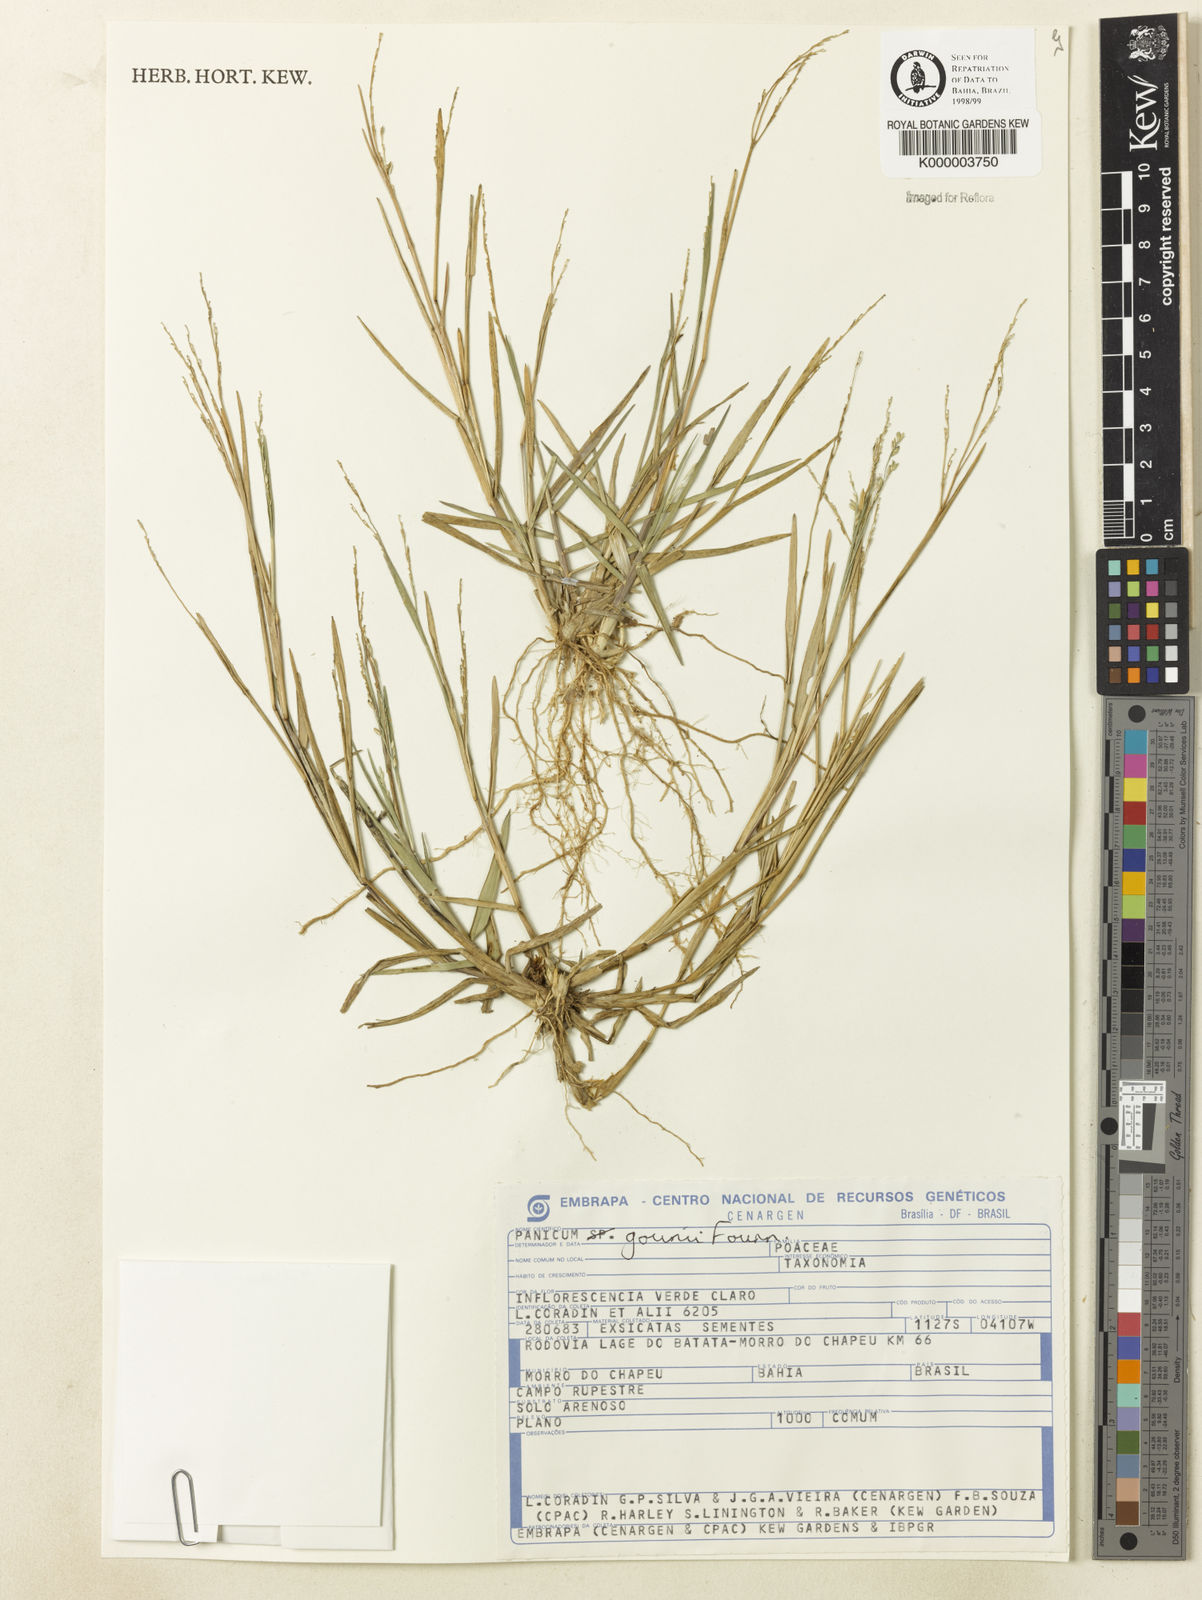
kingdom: Plantae
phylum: Tracheophyta
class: Liliopsida
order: Poales
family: Poaceae
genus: Hymenachne
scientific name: Hymenachne pernambucensis
